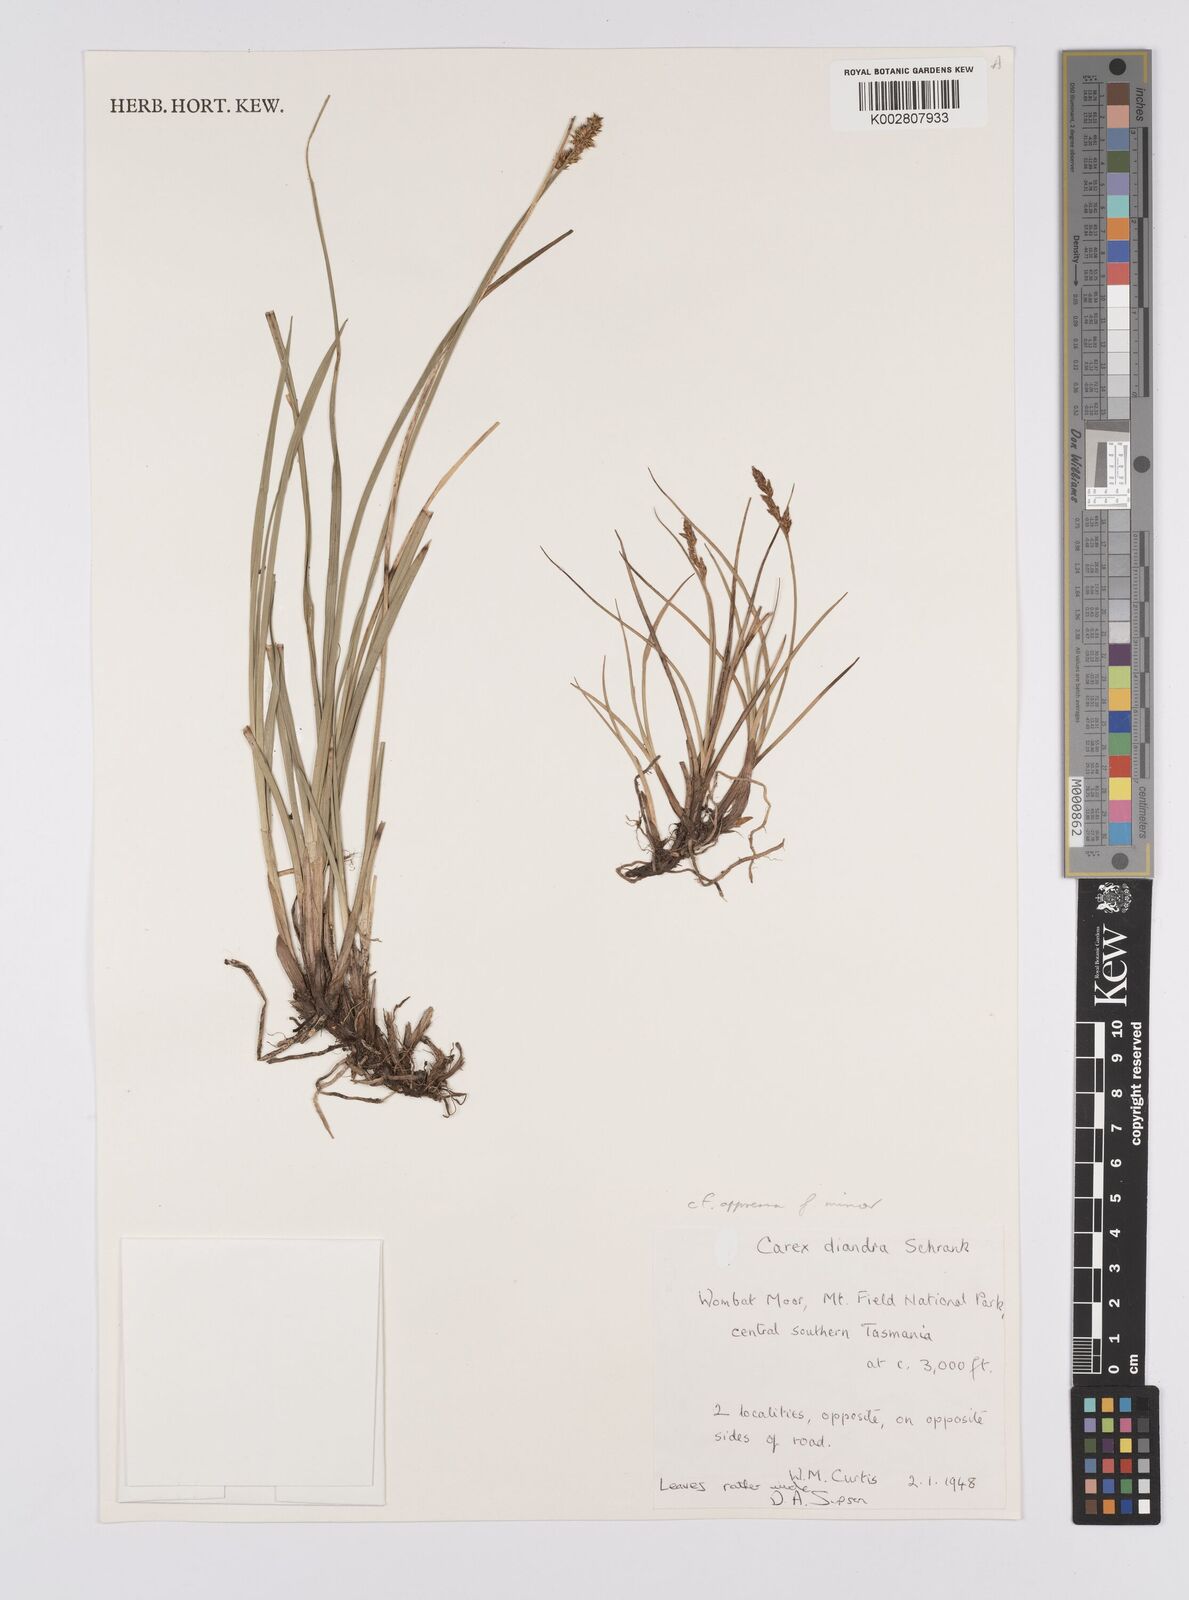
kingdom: Plantae
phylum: Tracheophyta
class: Liliopsida
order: Poales
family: Cyperaceae
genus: Carex
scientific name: Carex appressa
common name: Tussock sedge
